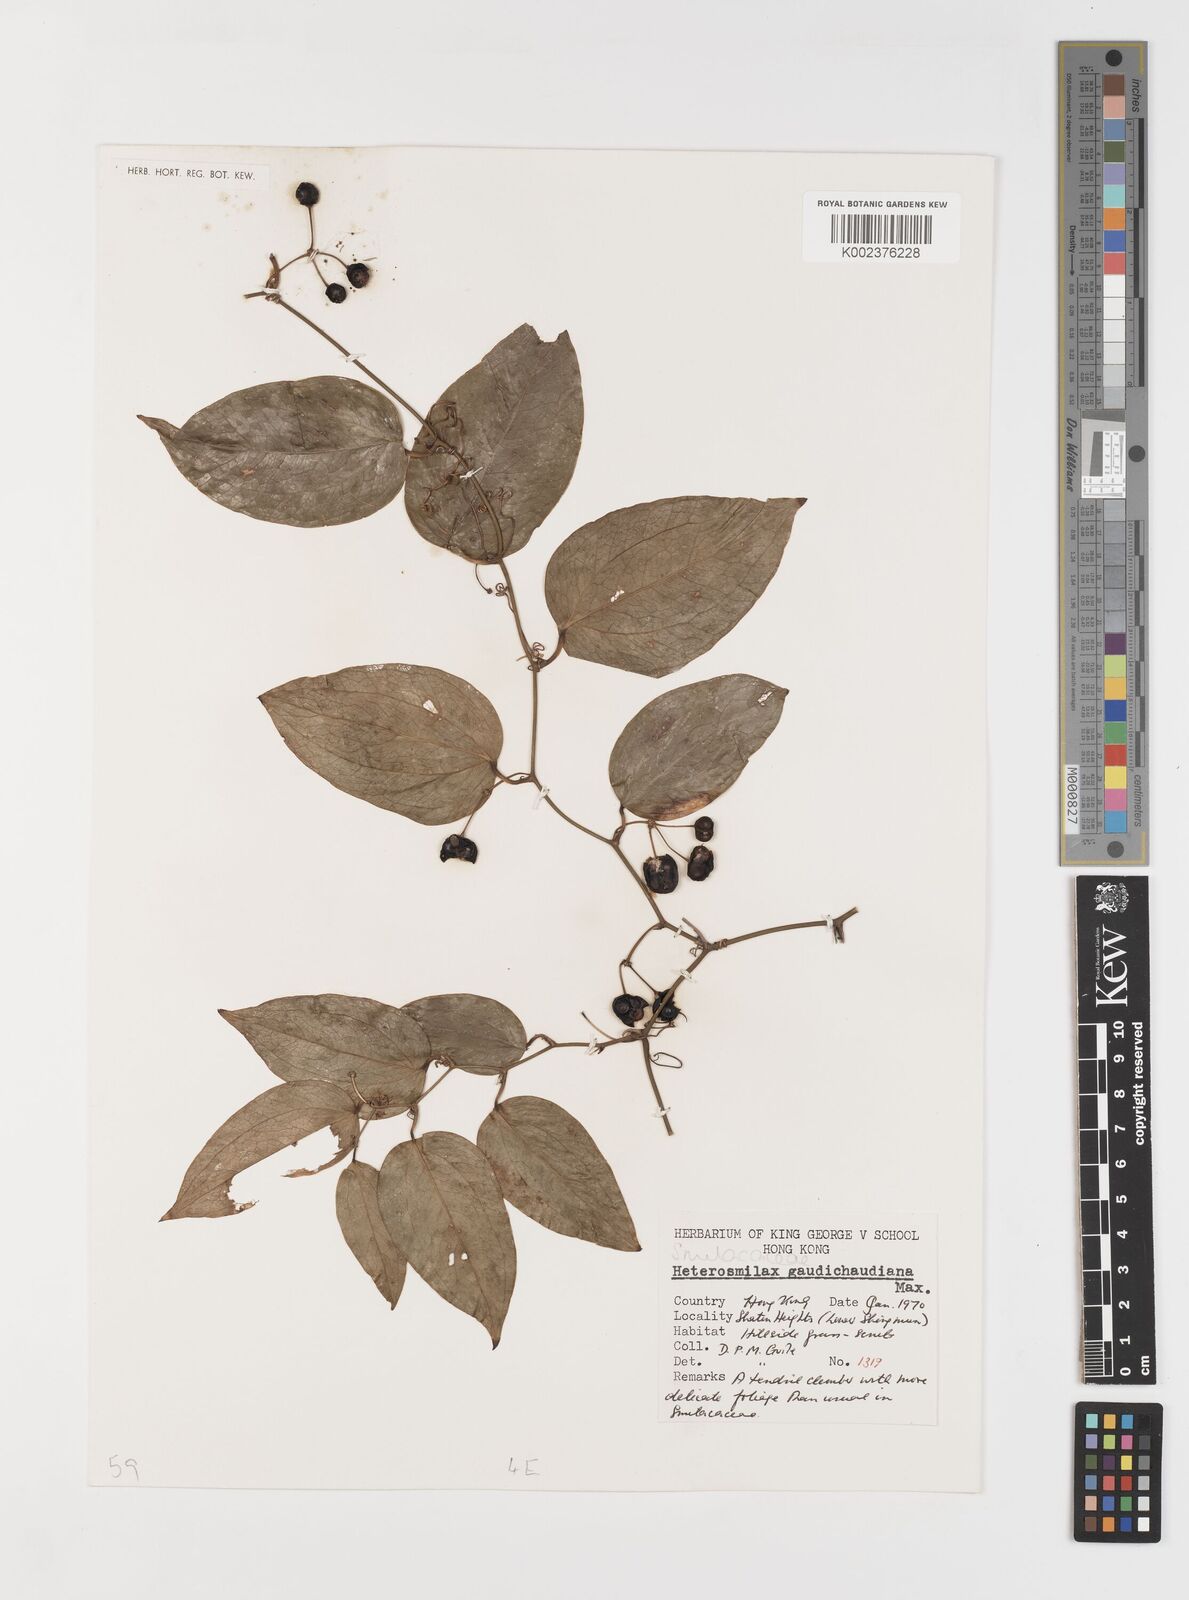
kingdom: Plantae
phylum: Tracheophyta
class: Liliopsida
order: Liliales
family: Smilacaceae
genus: Smilax
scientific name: Smilax gaudichaudiana
